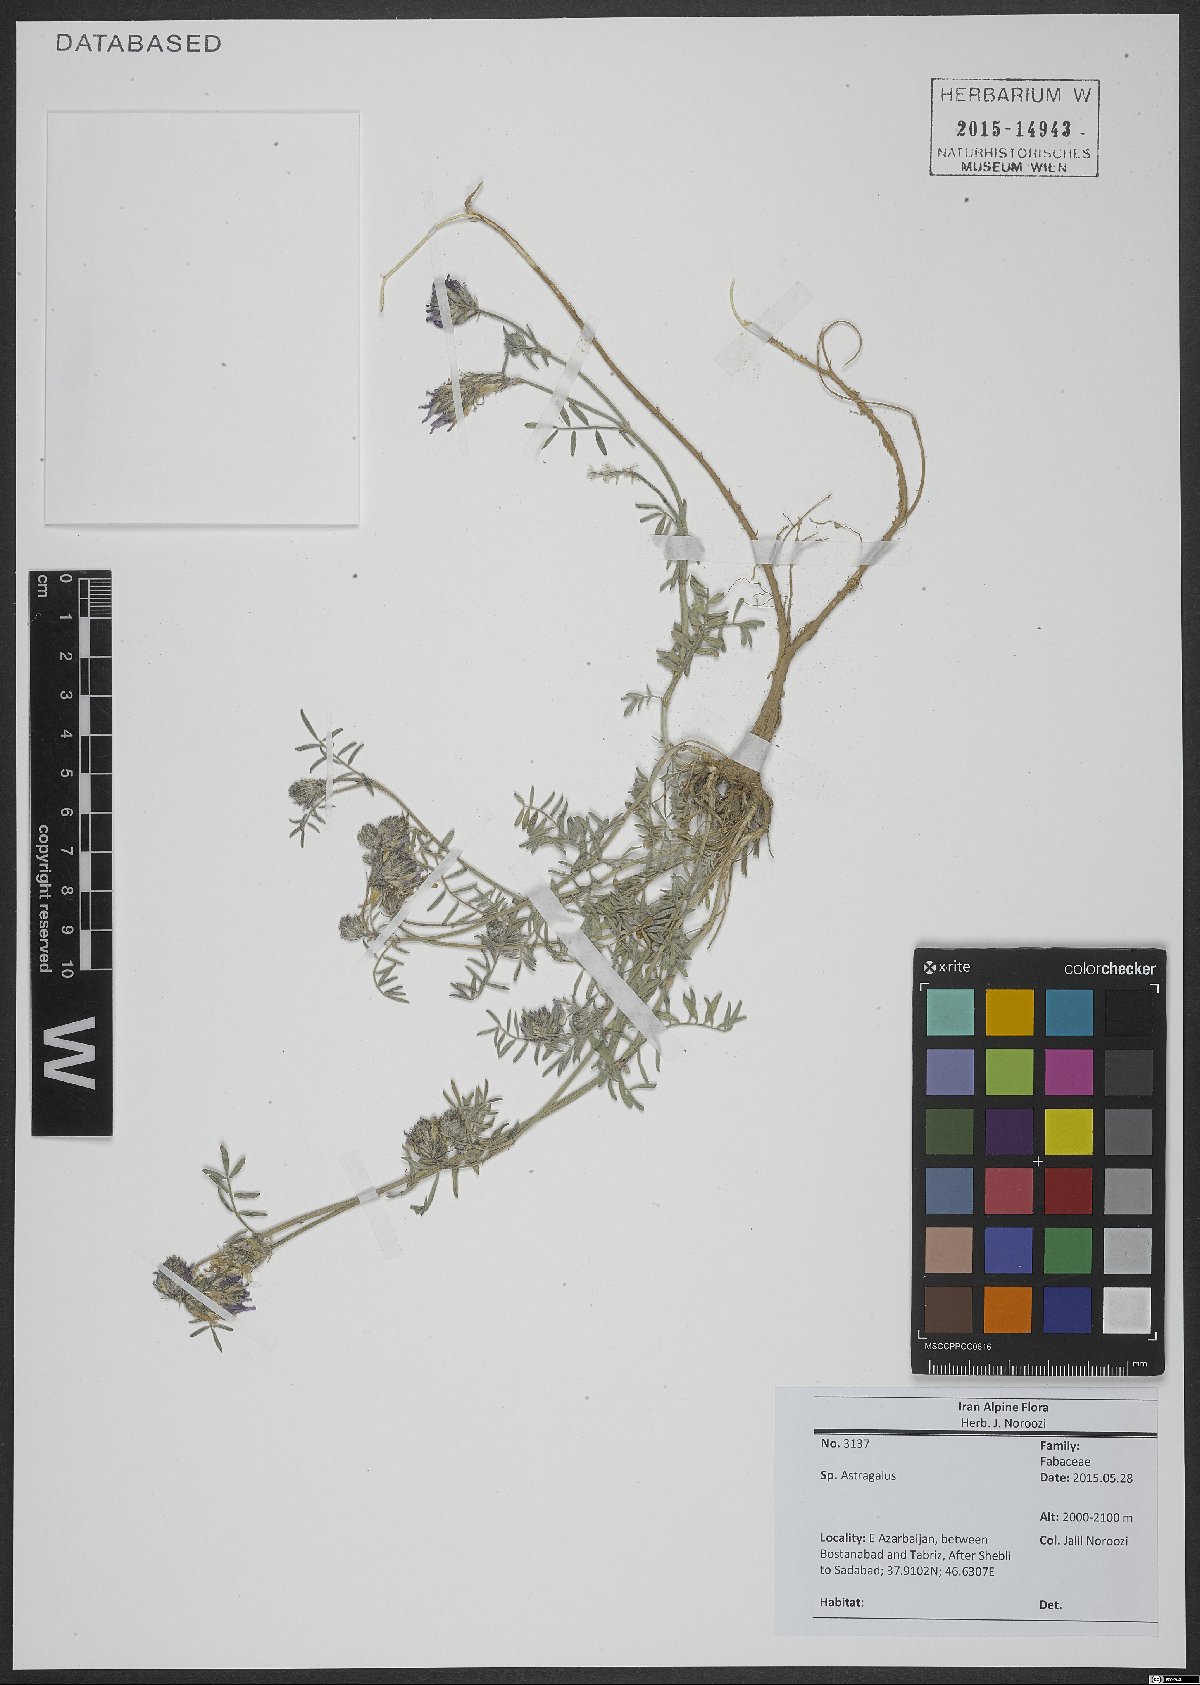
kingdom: Plantae
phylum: Tracheophyta
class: Magnoliopsida
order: Fabales
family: Fabaceae
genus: Astragalus
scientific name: Astragalus
